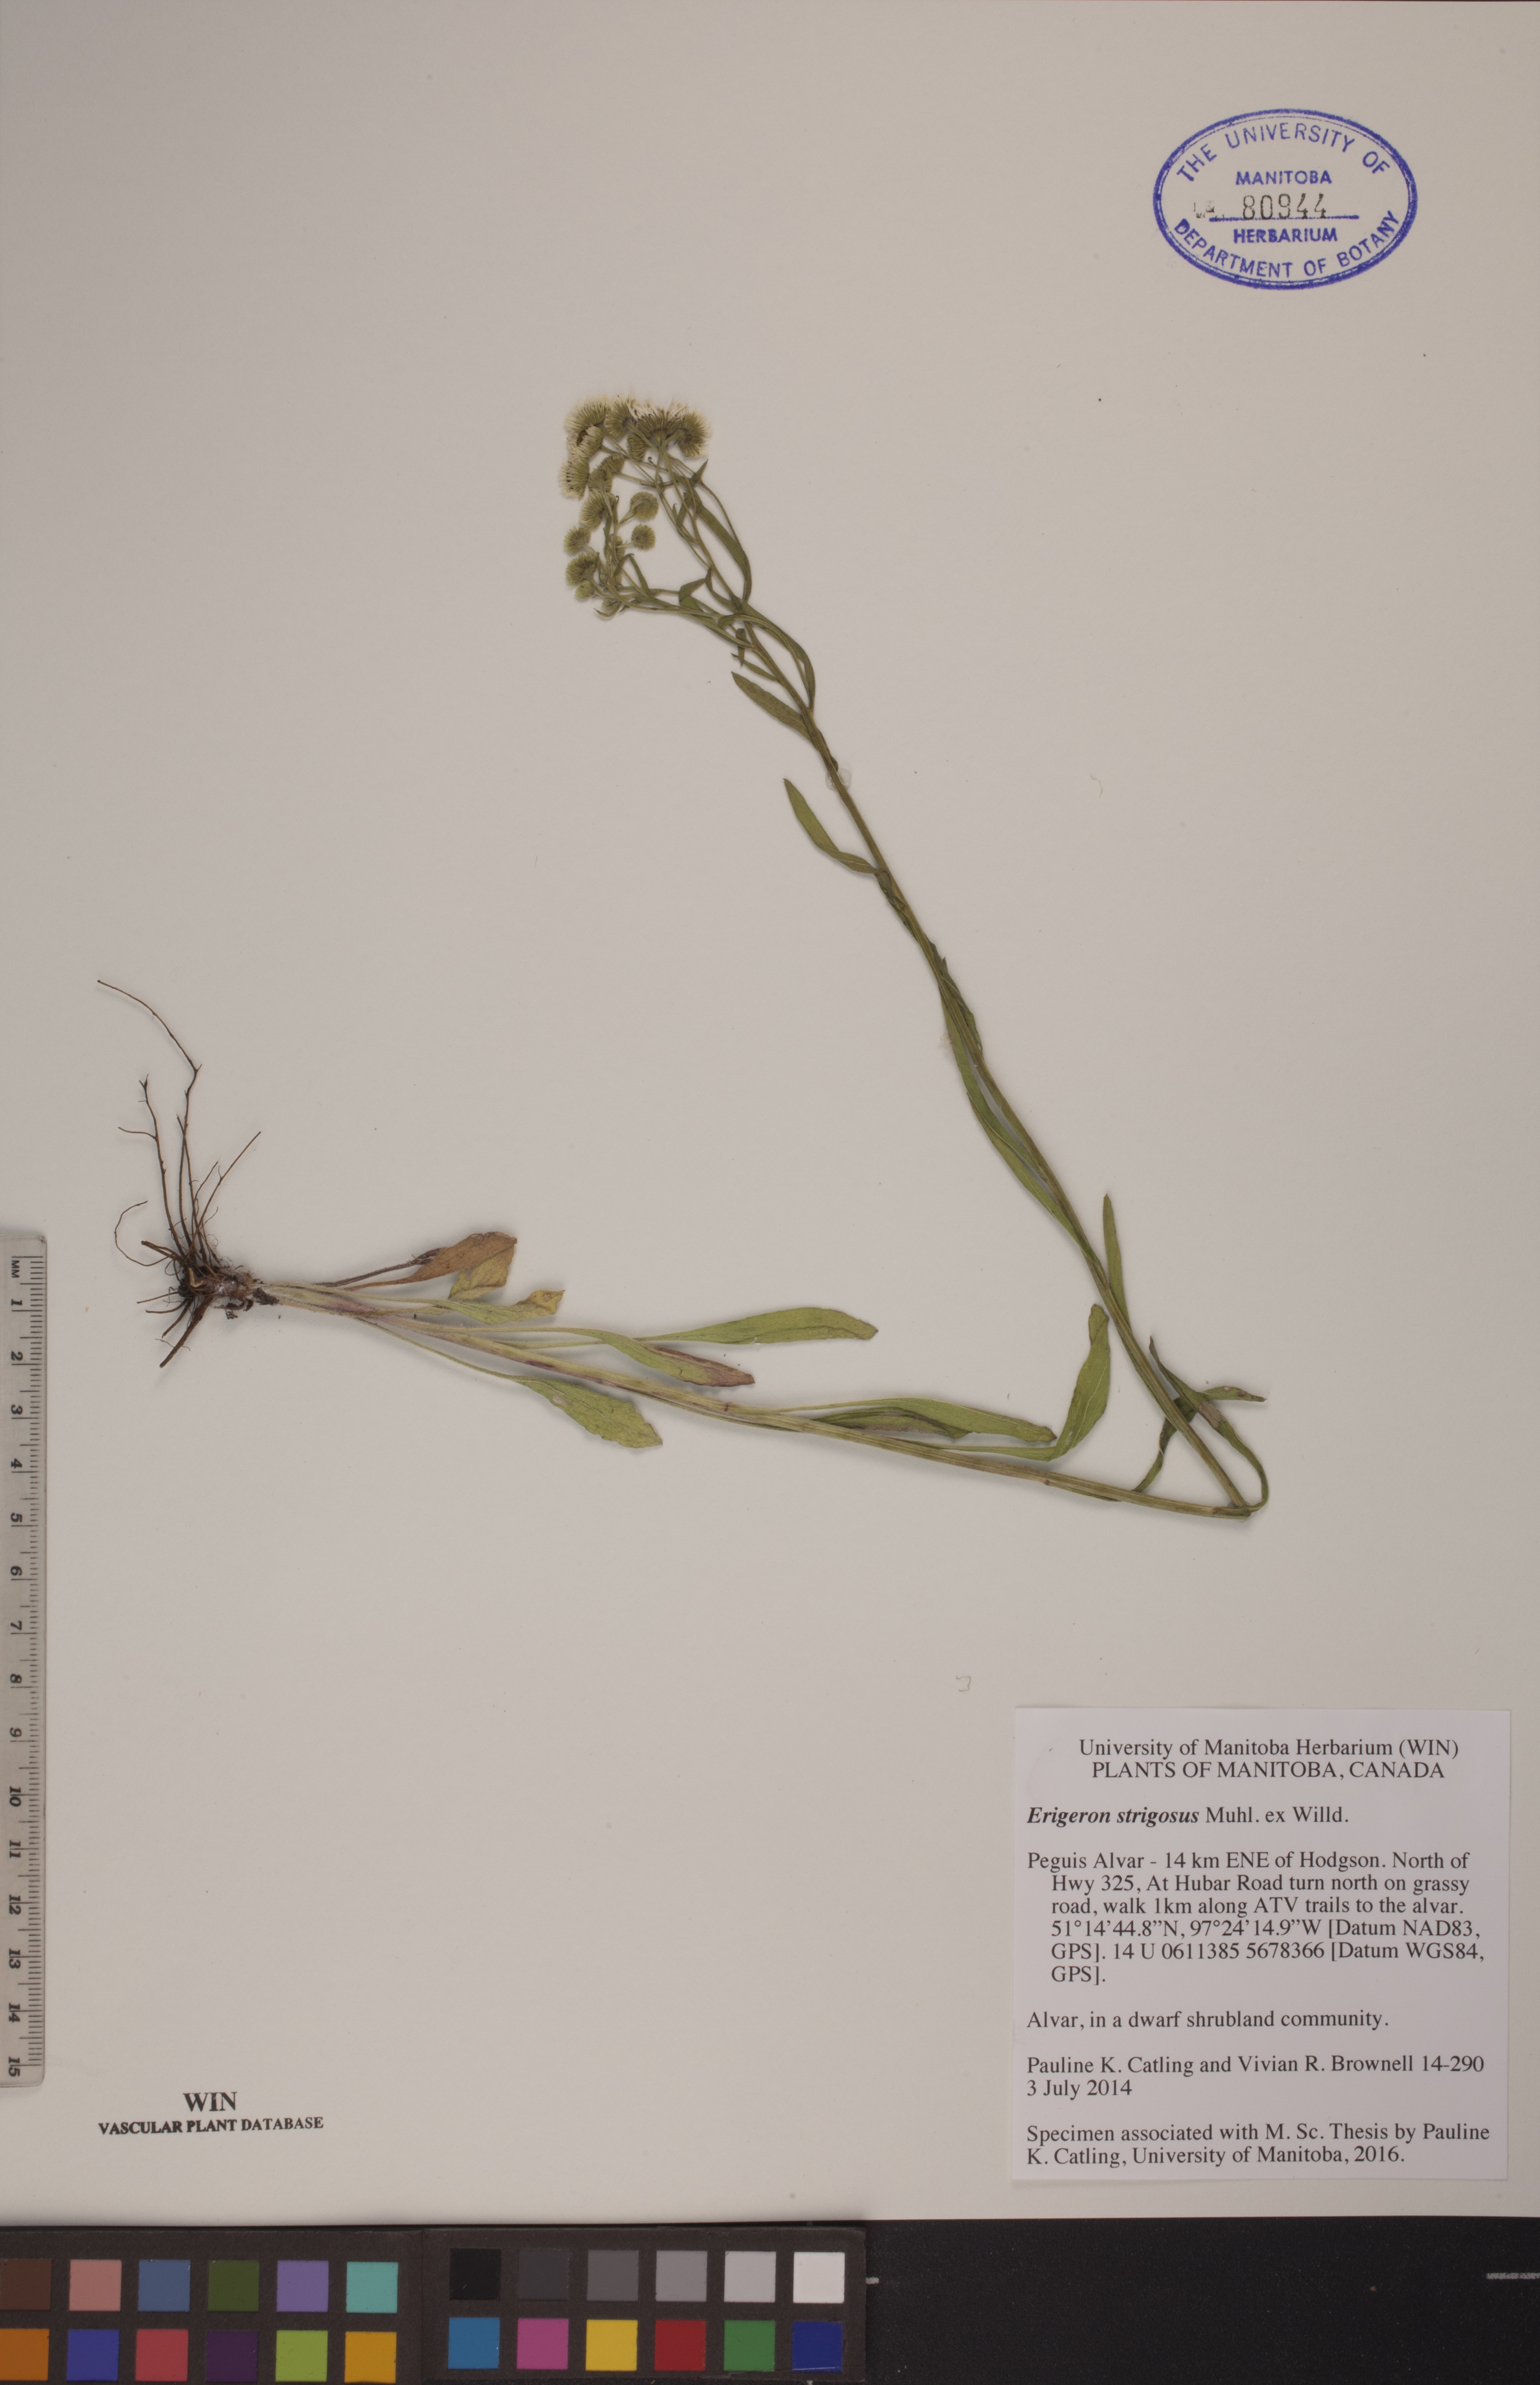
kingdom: Plantae
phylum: Tracheophyta
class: Magnoliopsida
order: Asterales
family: Asteraceae
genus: Erigeron
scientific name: Erigeron strigosus
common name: Common eastern fleabane
